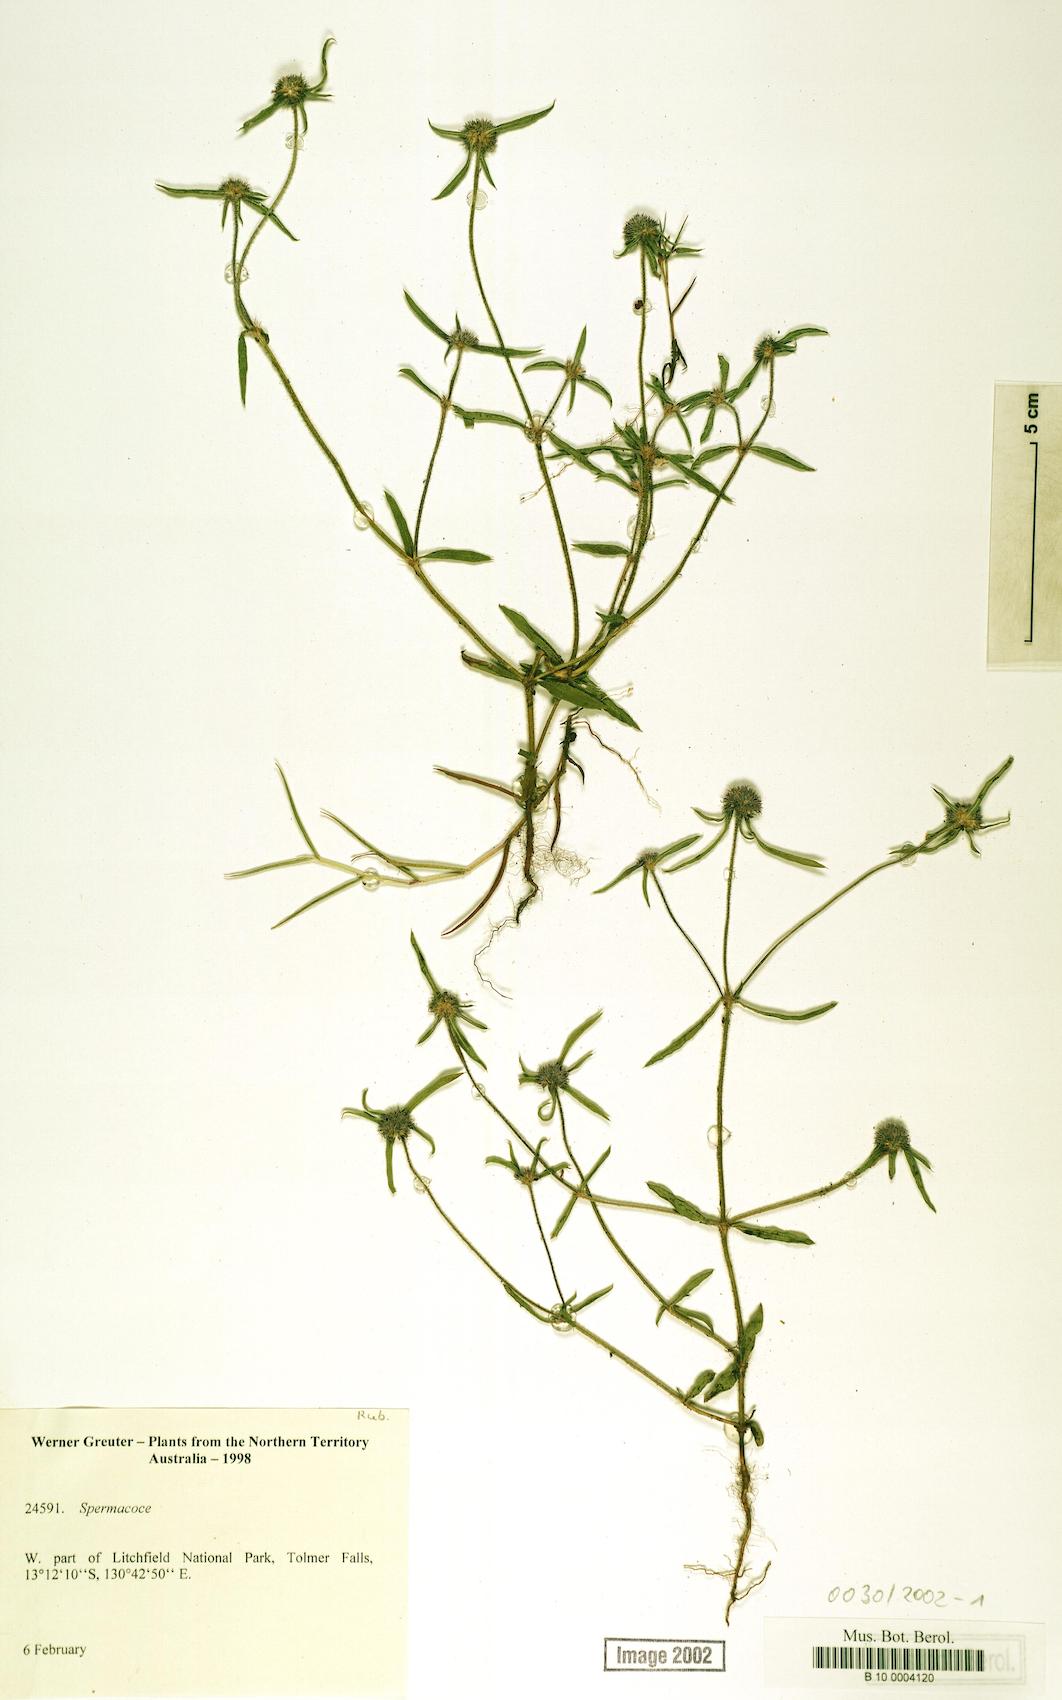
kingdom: Plantae
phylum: Tracheophyta
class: Magnoliopsida
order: Gentianales
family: Rubiaceae
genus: Spermacoce
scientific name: Spermacoce
